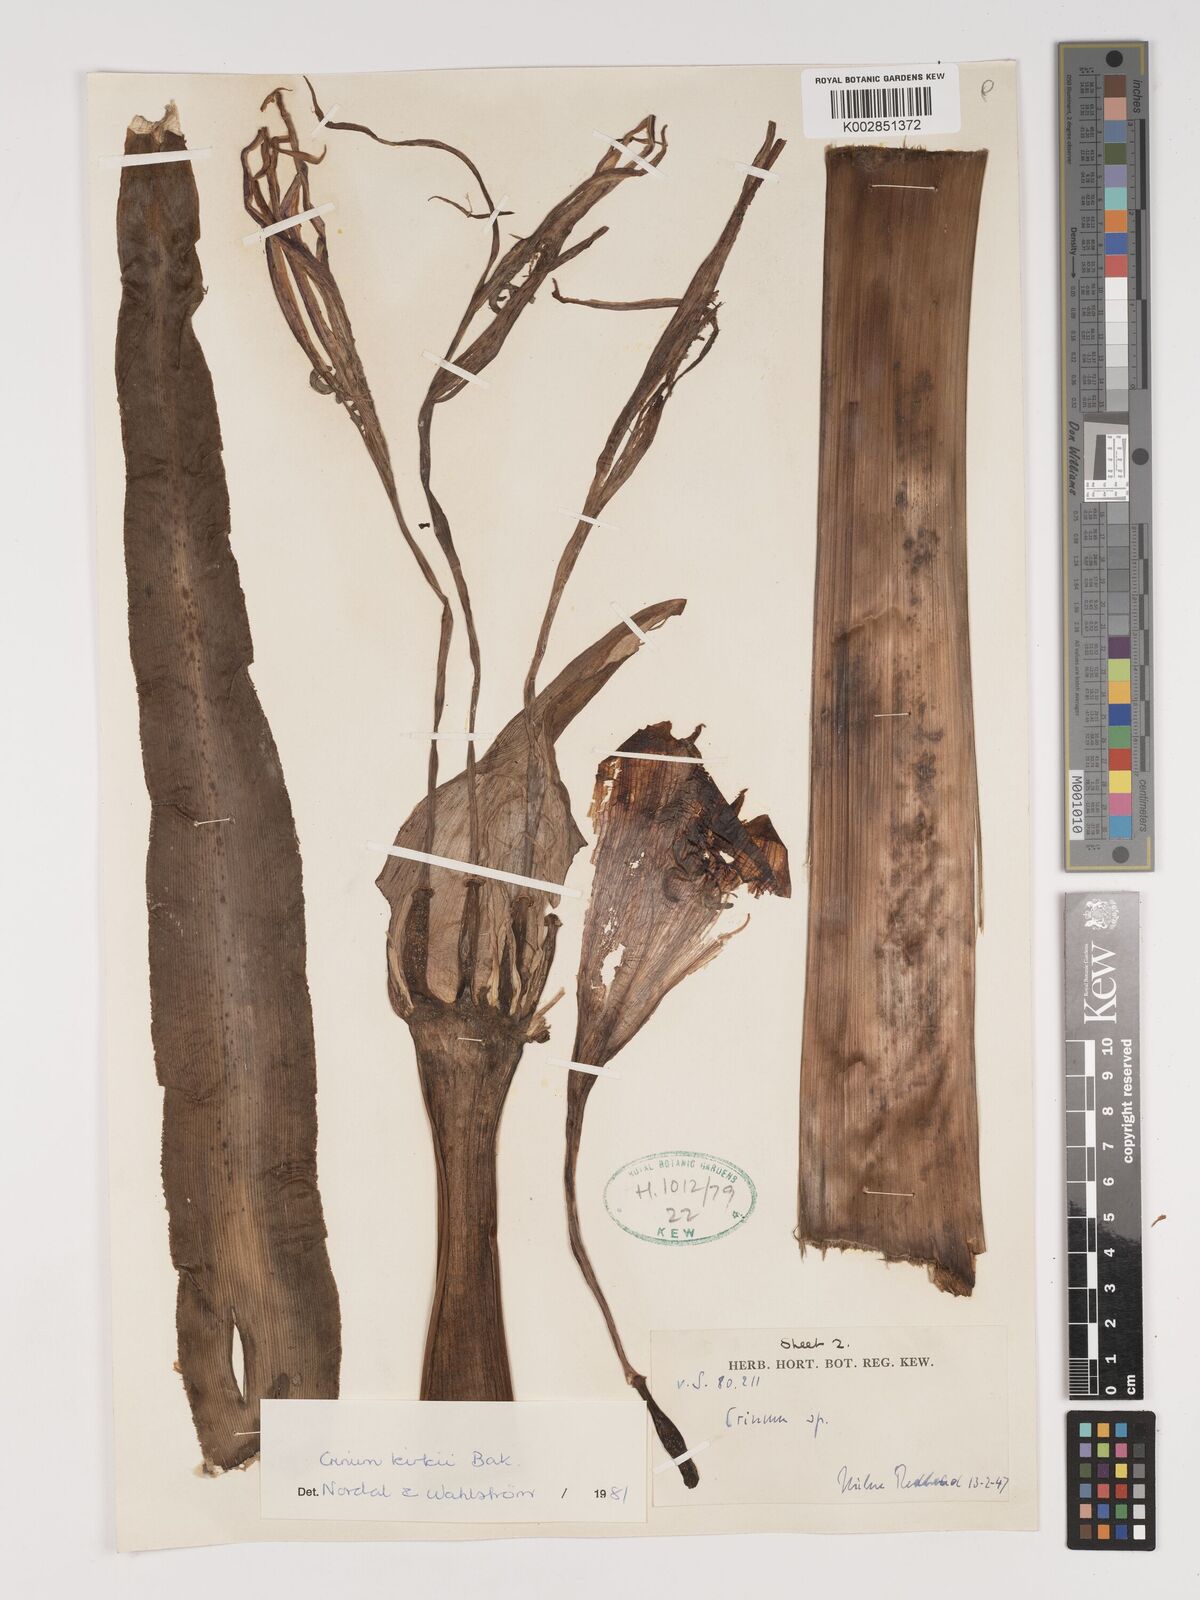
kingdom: Plantae
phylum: Tracheophyta
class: Liliopsida
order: Asparagales
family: Amaryllidaceae
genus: Crinum
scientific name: Crinum kirkii
